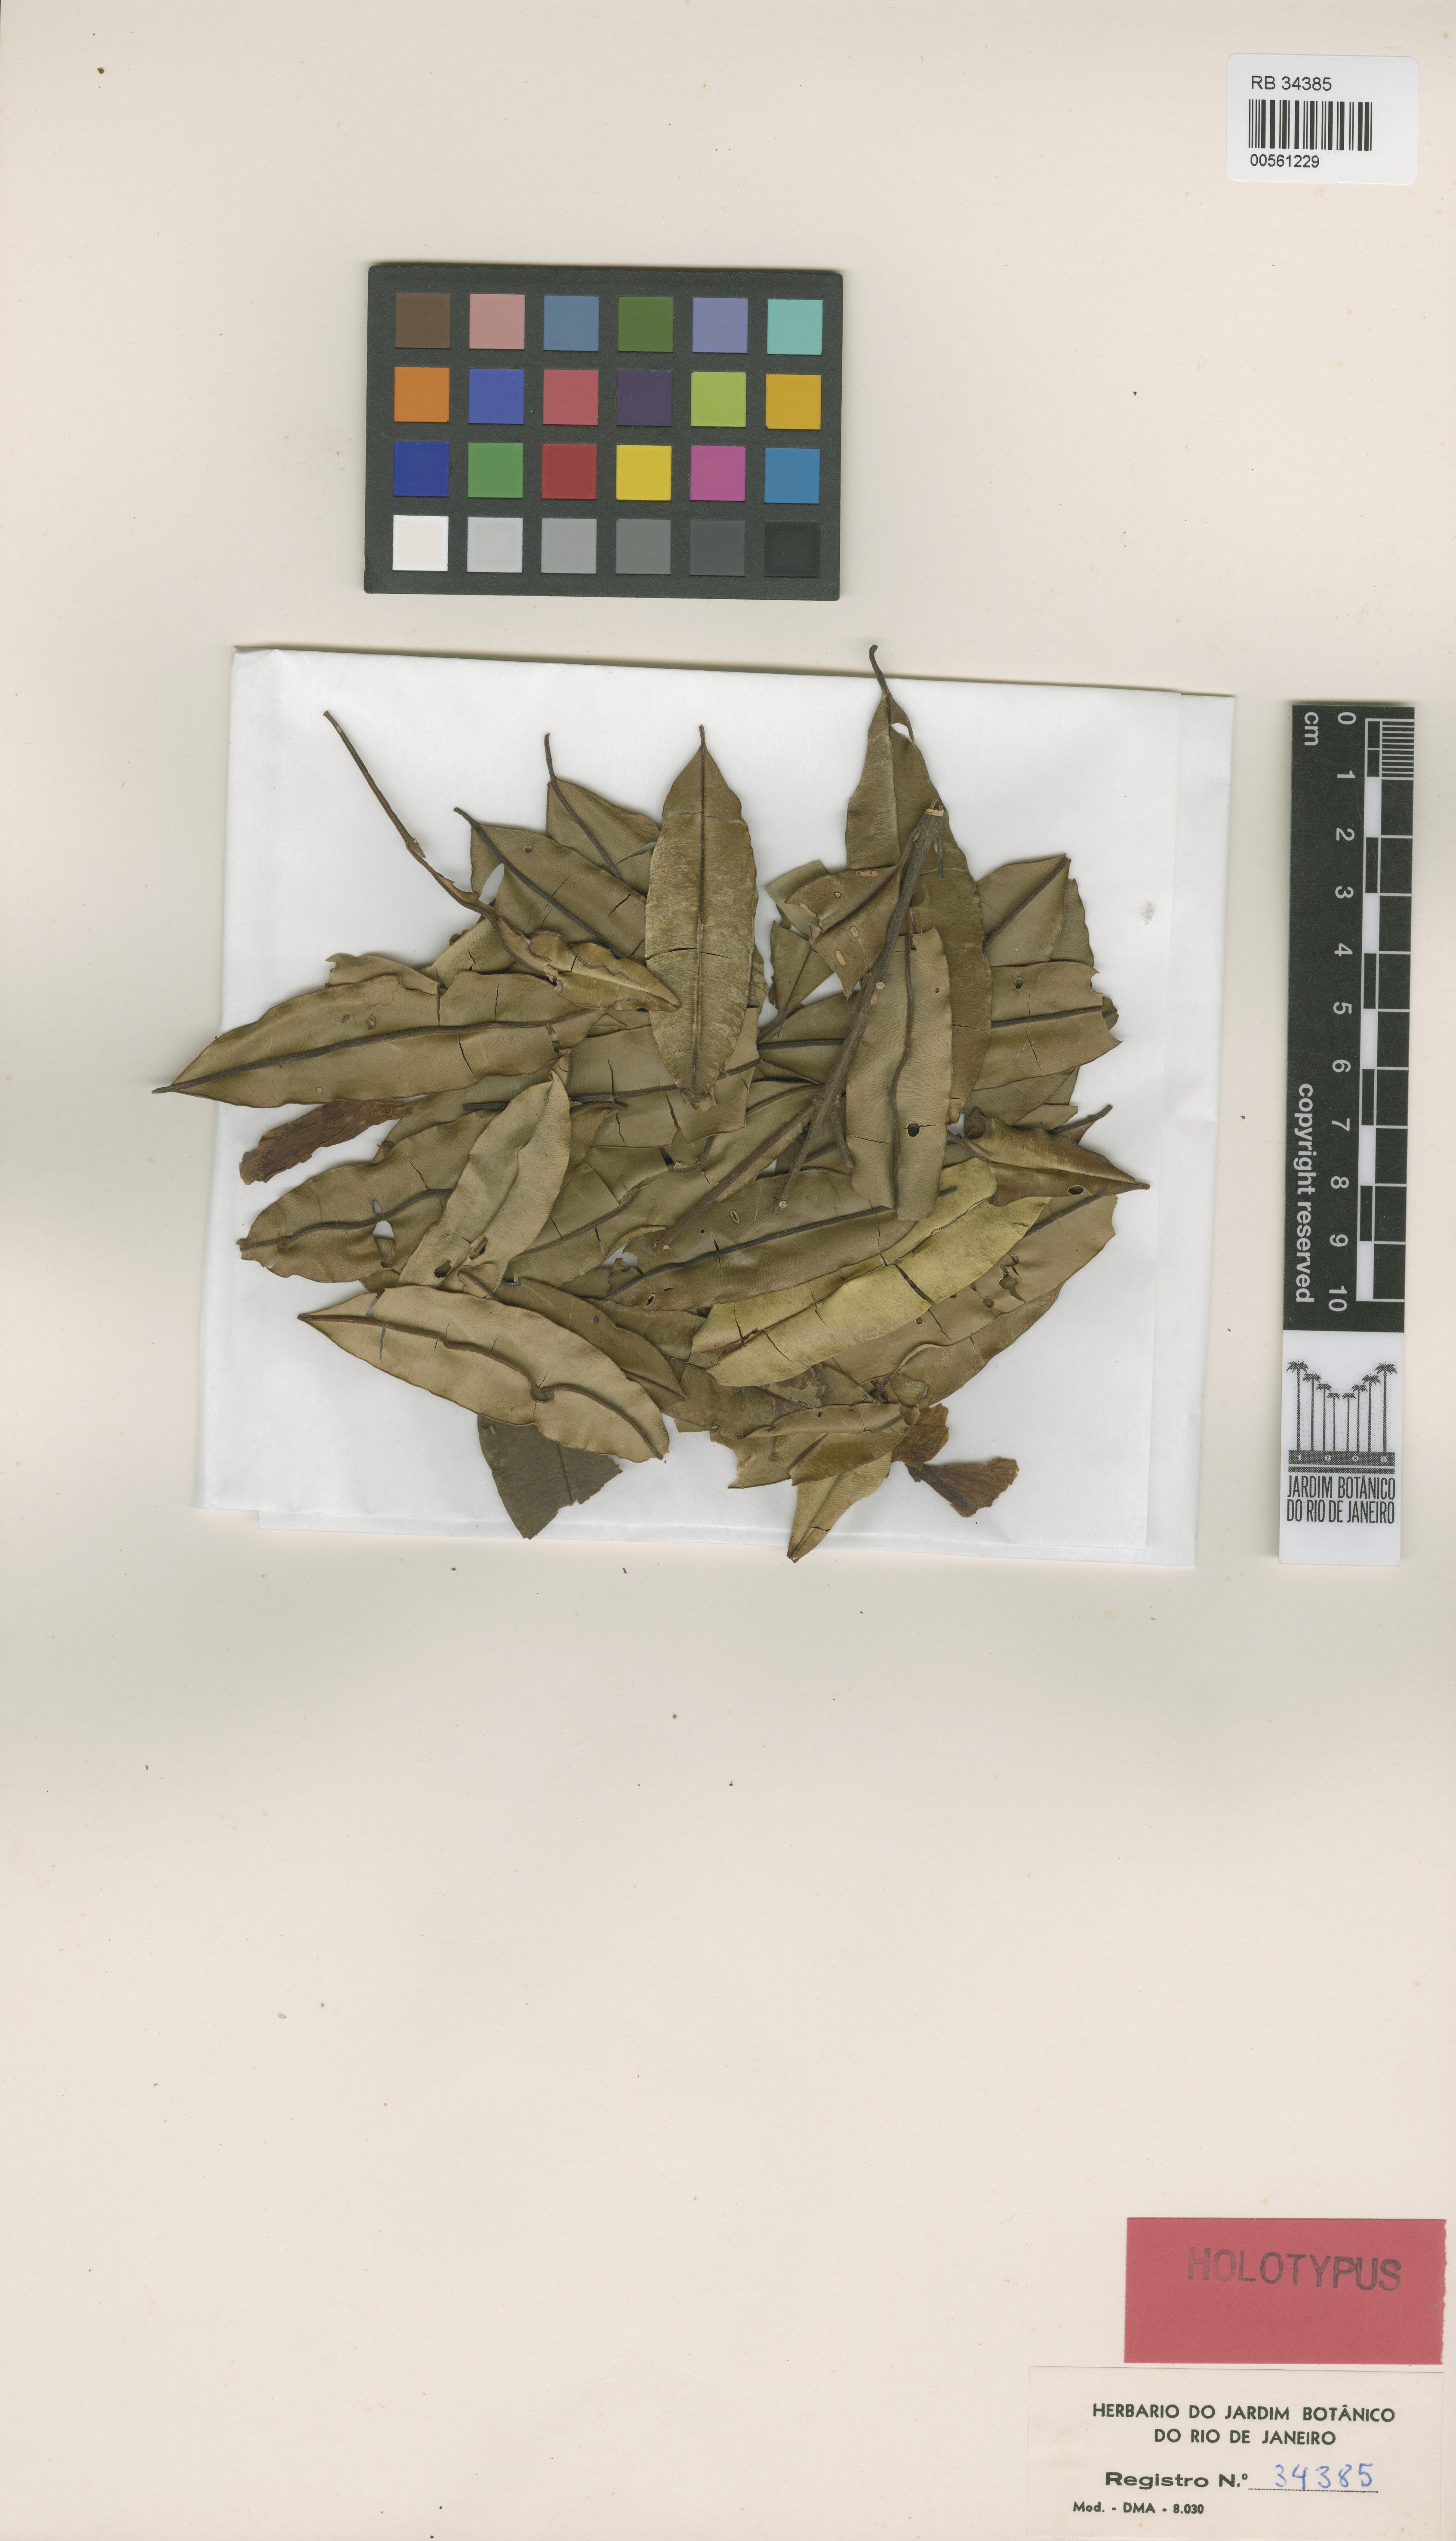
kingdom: Plantae
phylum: Tracheophyta
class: Magnoliopsida
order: Myrtales
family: Vochysiaceae
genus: Qualea
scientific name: Qualea magna
